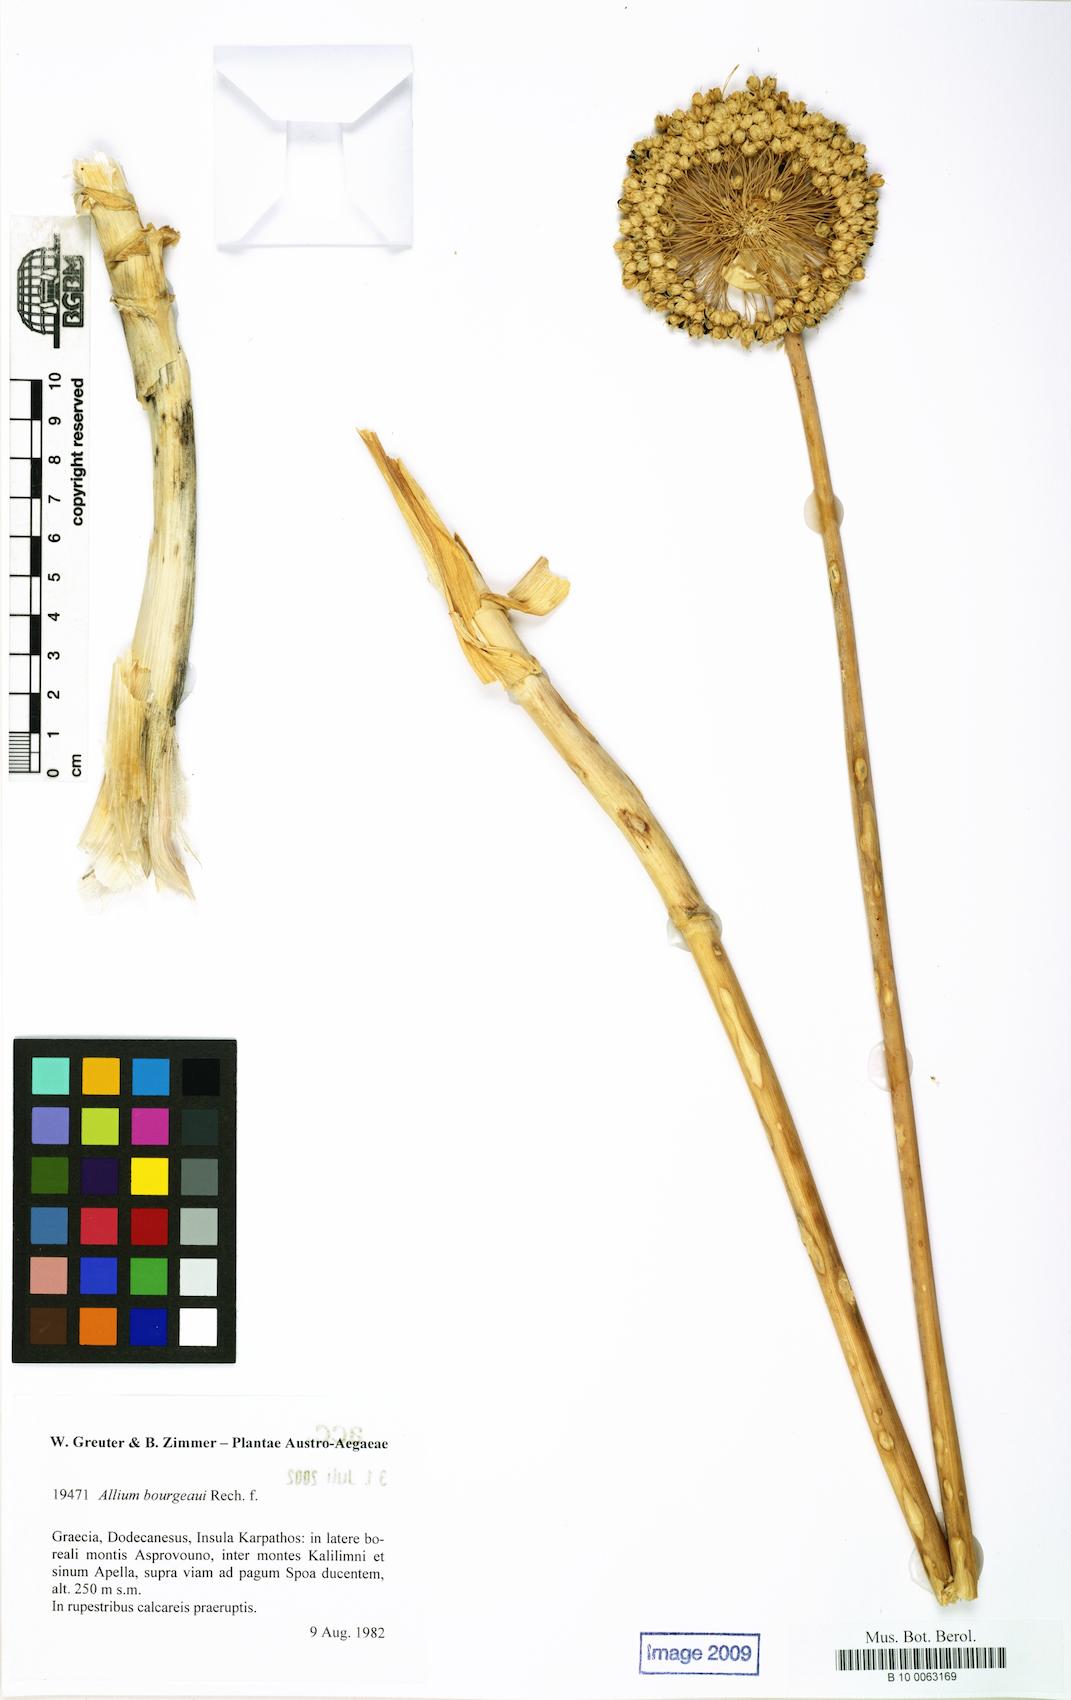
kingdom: Plantae
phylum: Tracheophyta
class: Liliopsida
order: Asparagales
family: Amaryllidaceae
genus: Allium
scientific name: Allium bourgeaui
